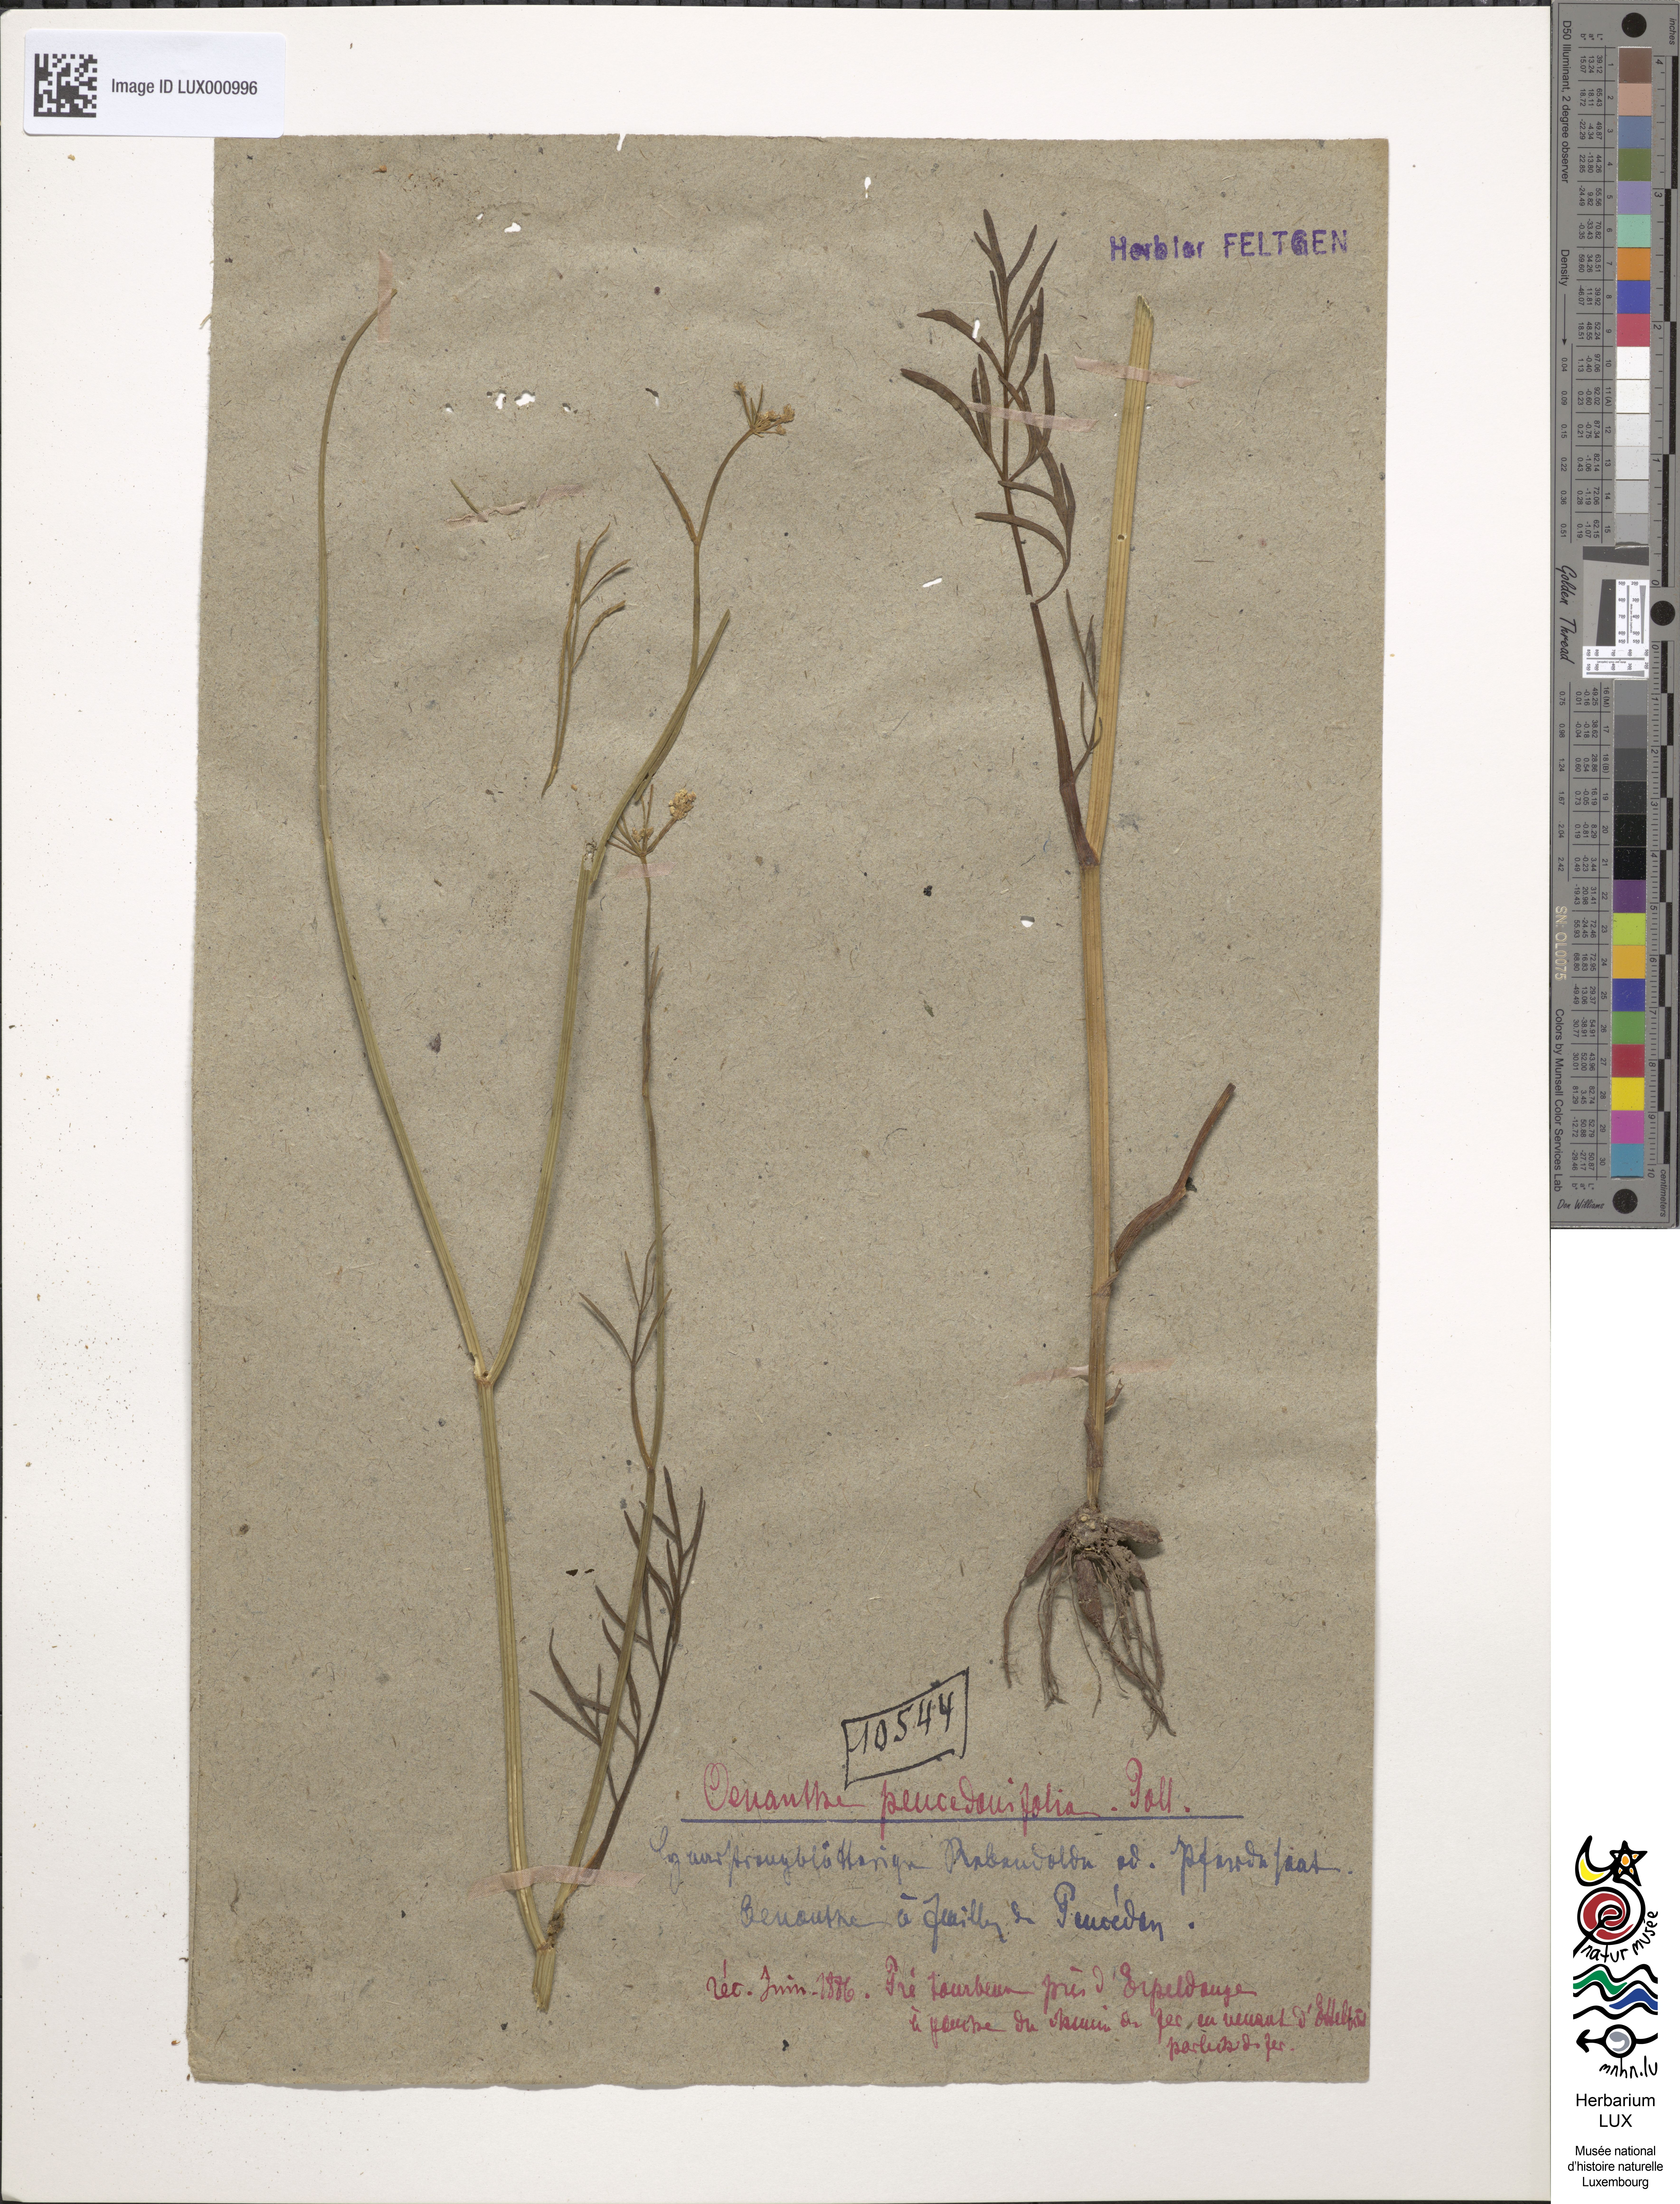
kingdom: Plantae
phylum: Tracheophyta
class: Magnoliopsida
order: Apiales
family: Apiaceae
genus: Oenanthe
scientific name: Oenanthe peucedanifolia
